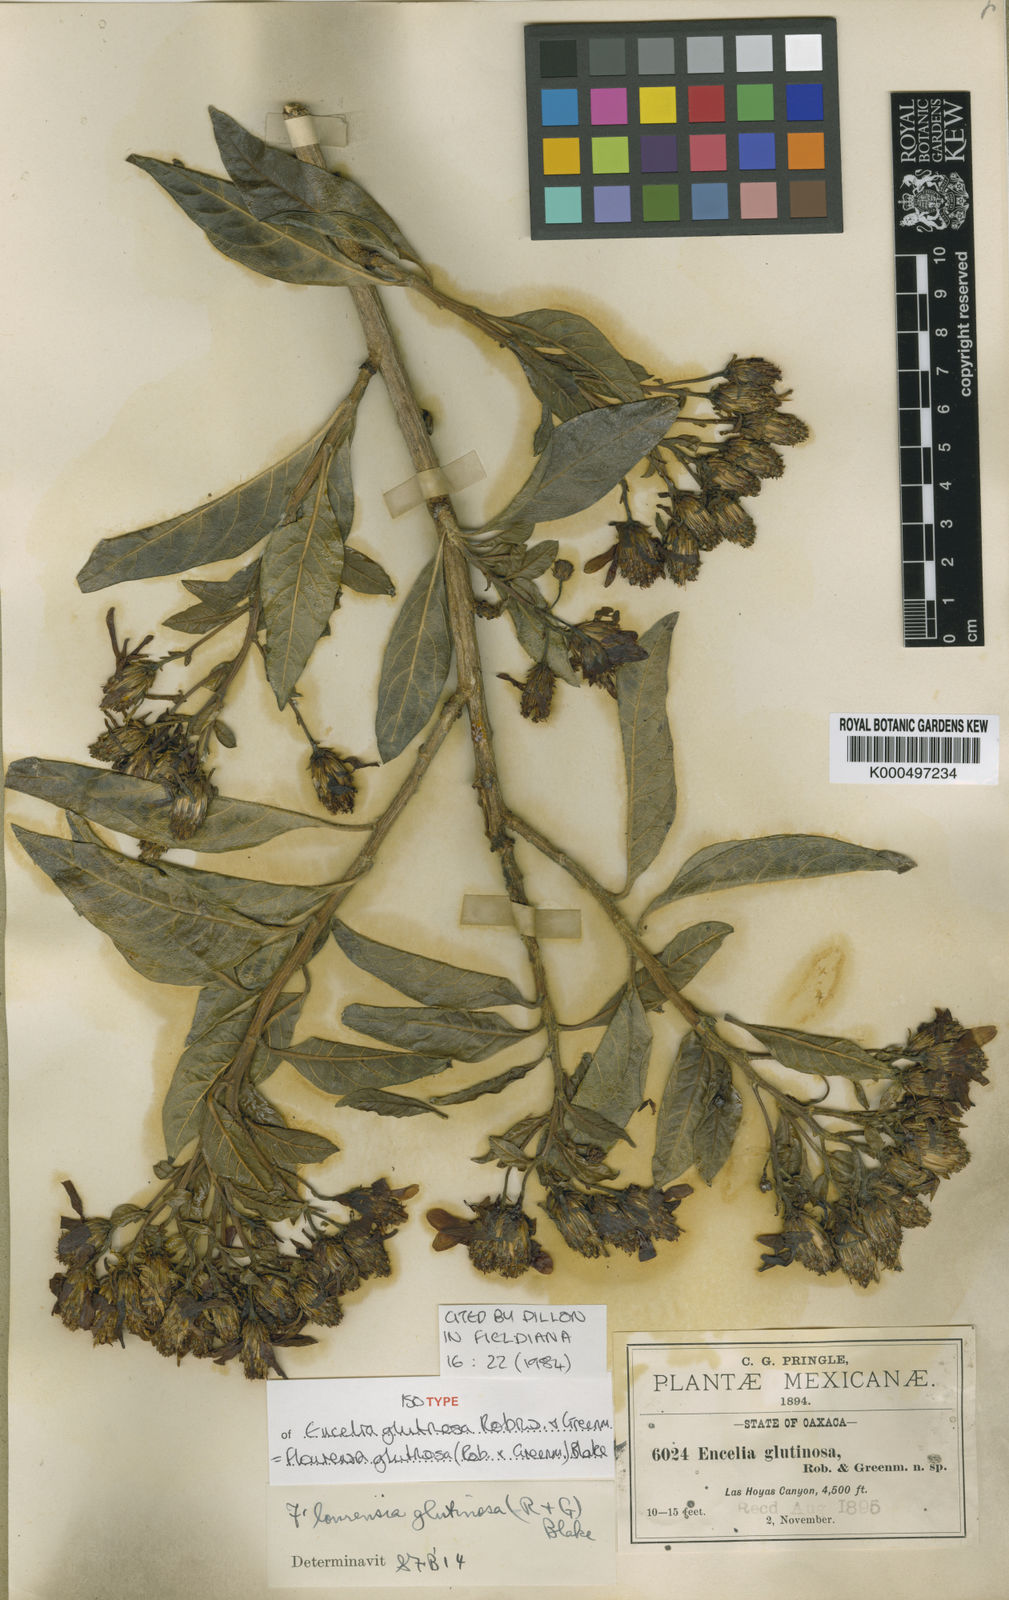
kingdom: Plantae
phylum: Tracheophyta
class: Magnoliopsida
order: Asterales
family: Asteraceae
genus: Flourensia
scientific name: Flourensia glutinosa
